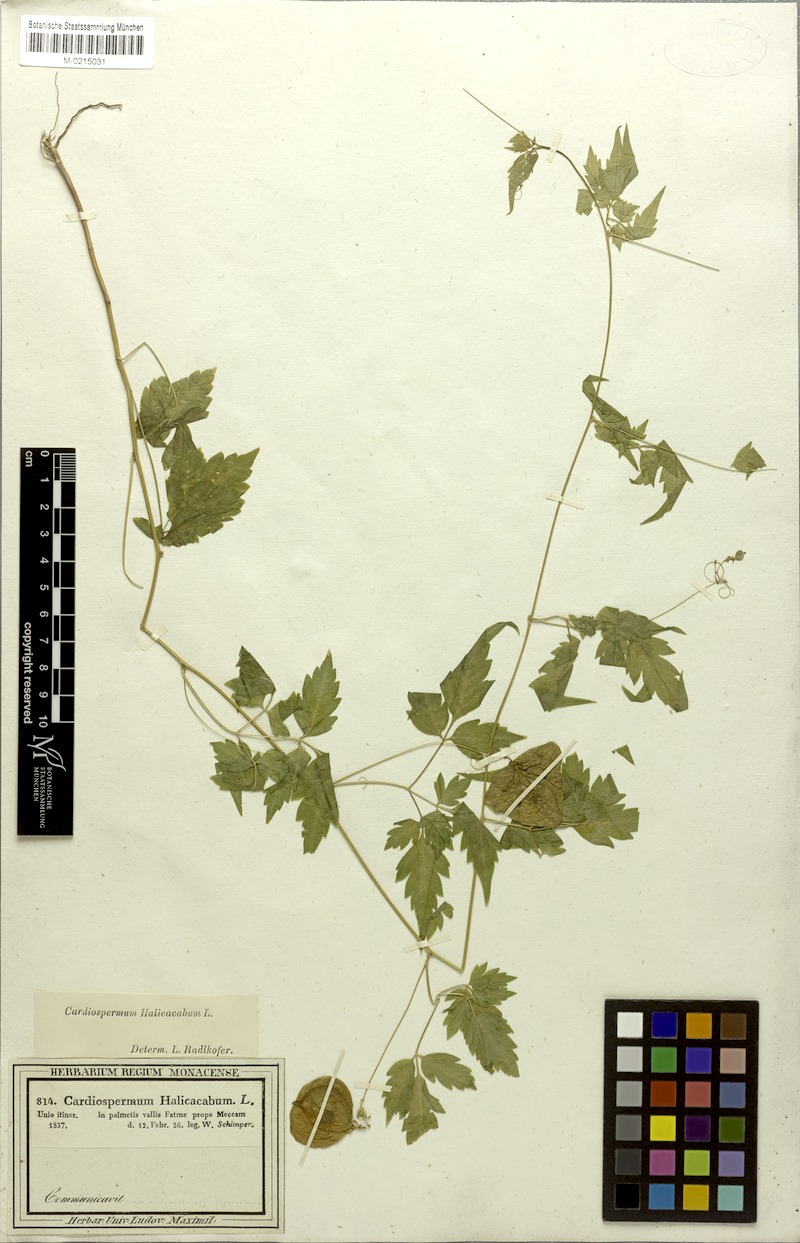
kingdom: Plantae
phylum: Tracheophyta
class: Magnoliopsida
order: Sapindales
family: Sapindaceae
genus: Cardiospermum
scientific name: Cardiospermum halicacabum
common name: Balloon vine
